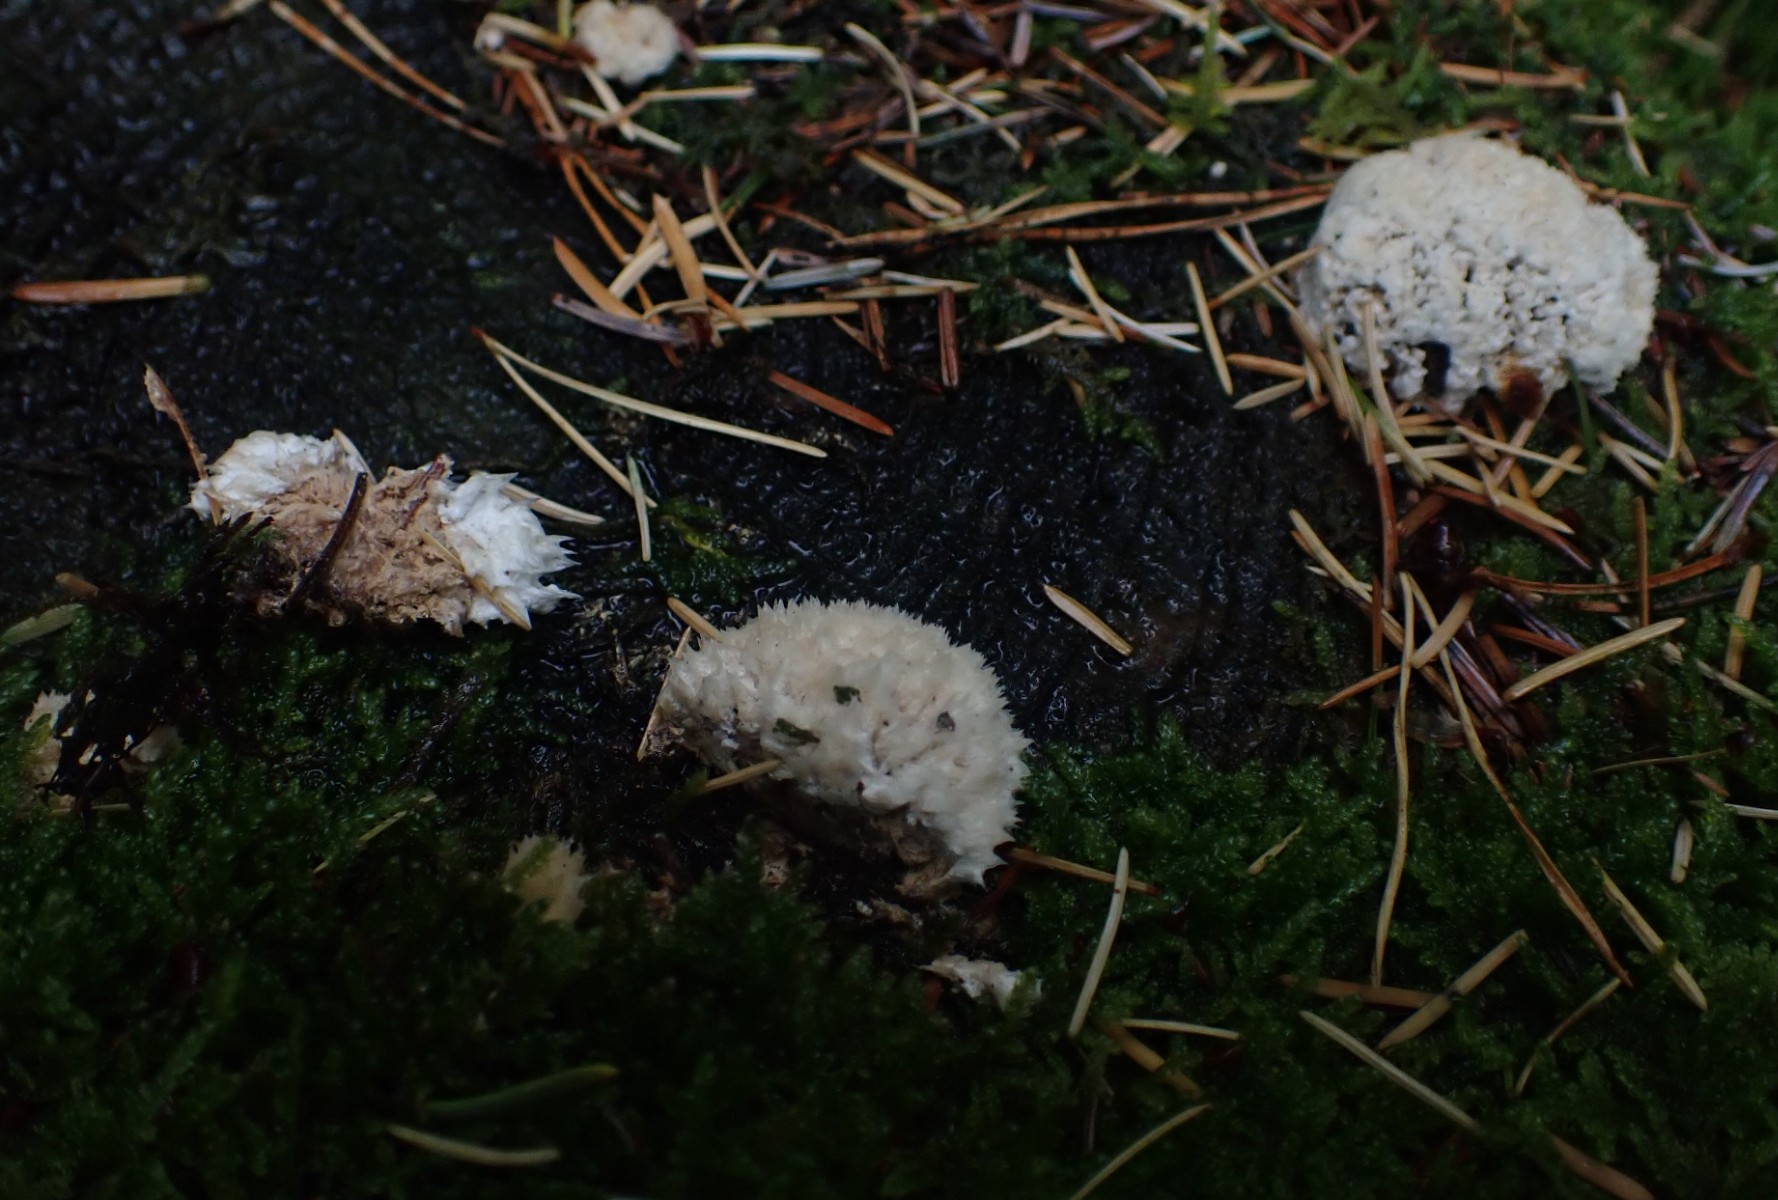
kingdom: Fungi
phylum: Basidiomycota
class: Agaricomycetes
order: Polyporales
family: Dacryobolaceae
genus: Postia
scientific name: Postia ptychogaster
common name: støvende kødporesvamp
